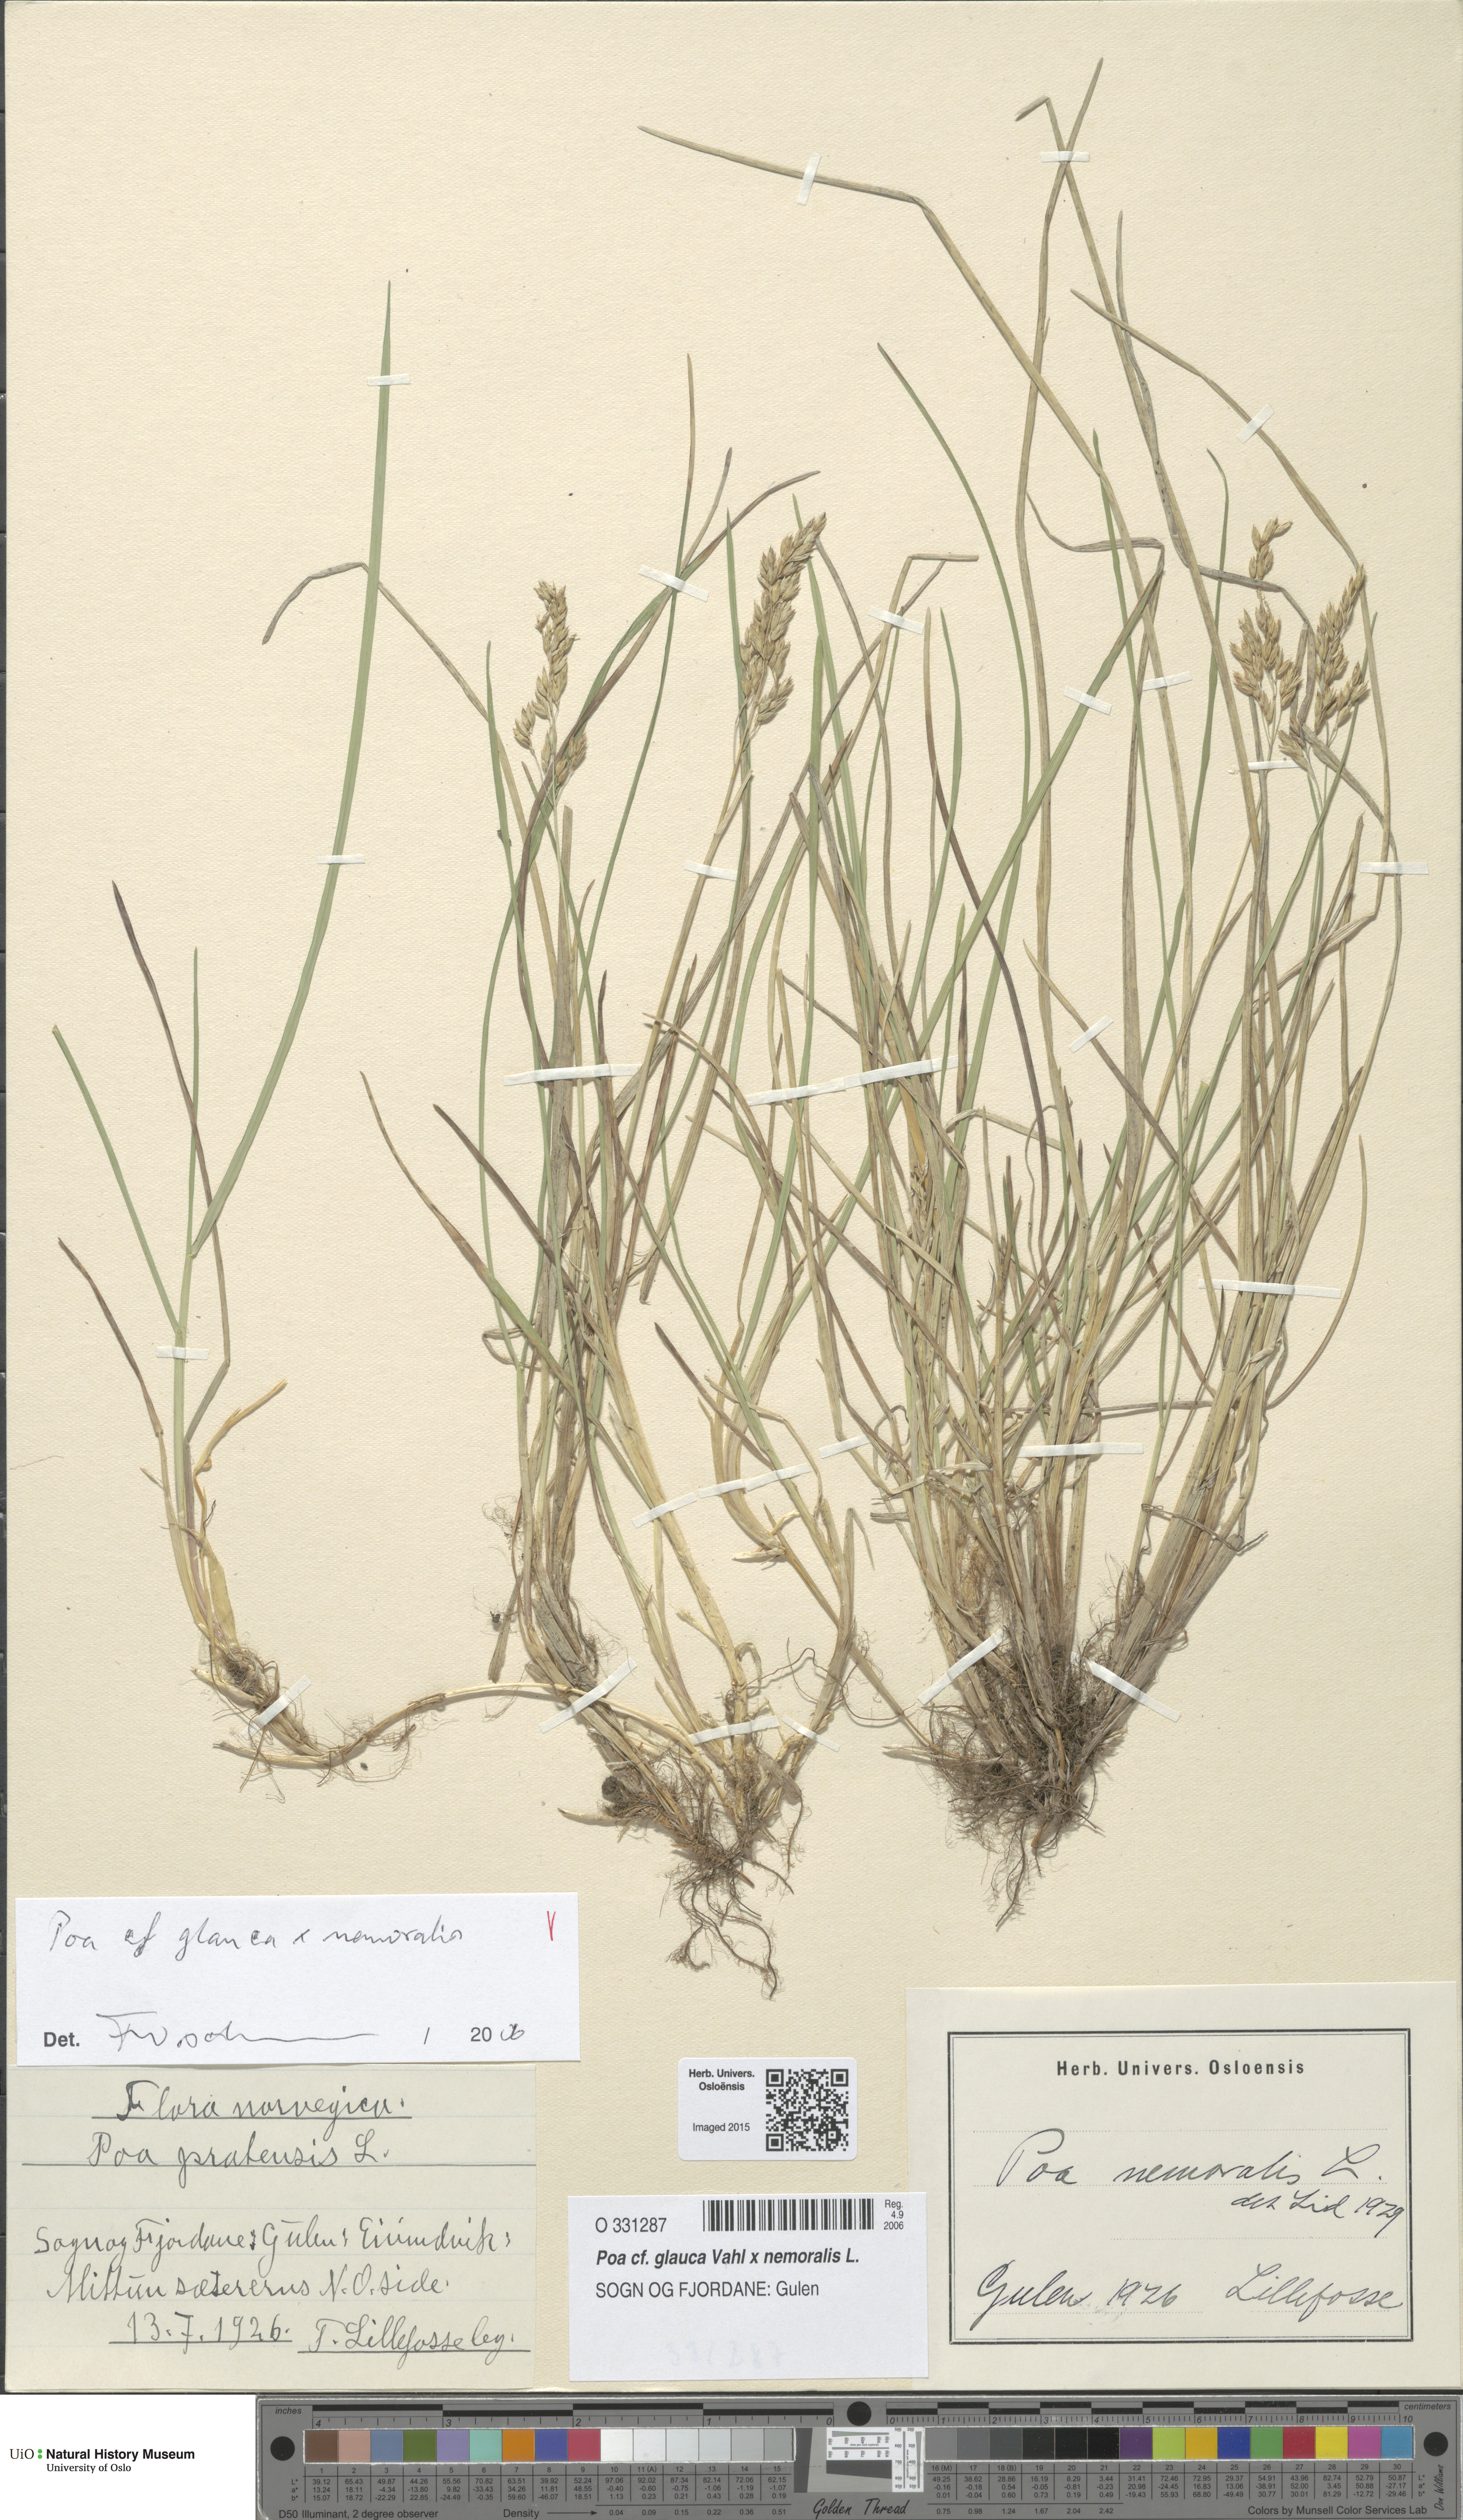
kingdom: Plantae
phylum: Tracheophyta
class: Liliopsida
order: Poales
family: Poaceae
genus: Poa
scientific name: Poa
